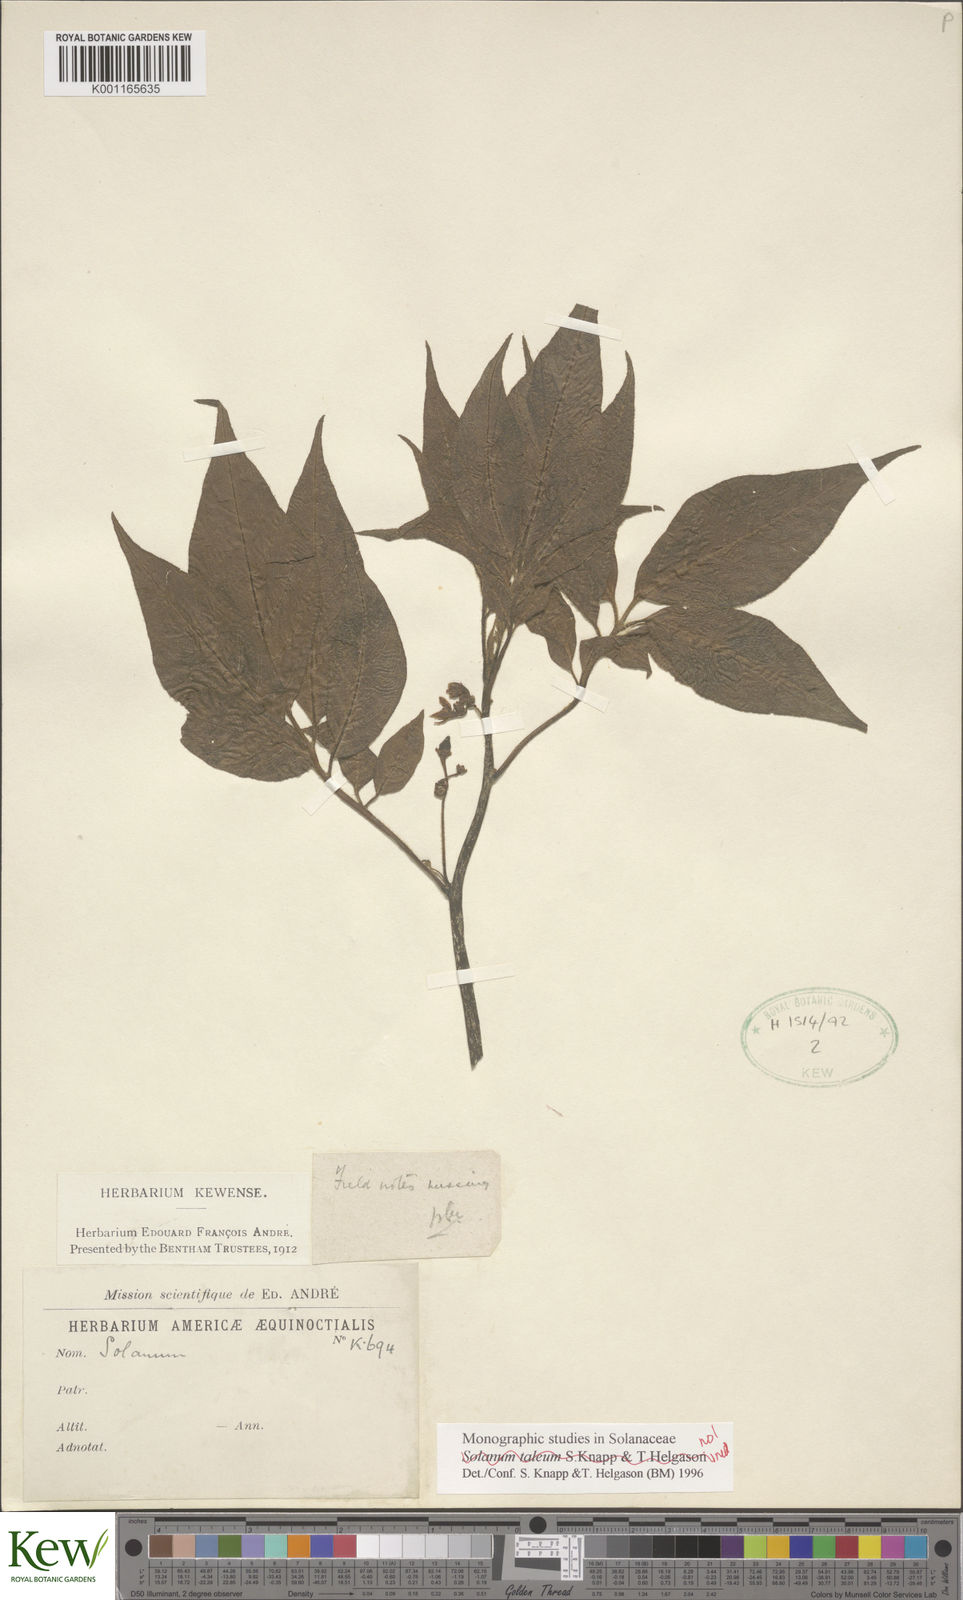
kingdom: Plantae
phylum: Tracheophyta
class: Magnoliopsida
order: Solanales
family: Solanaceae
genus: Solanum
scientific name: Solanum savanillense
